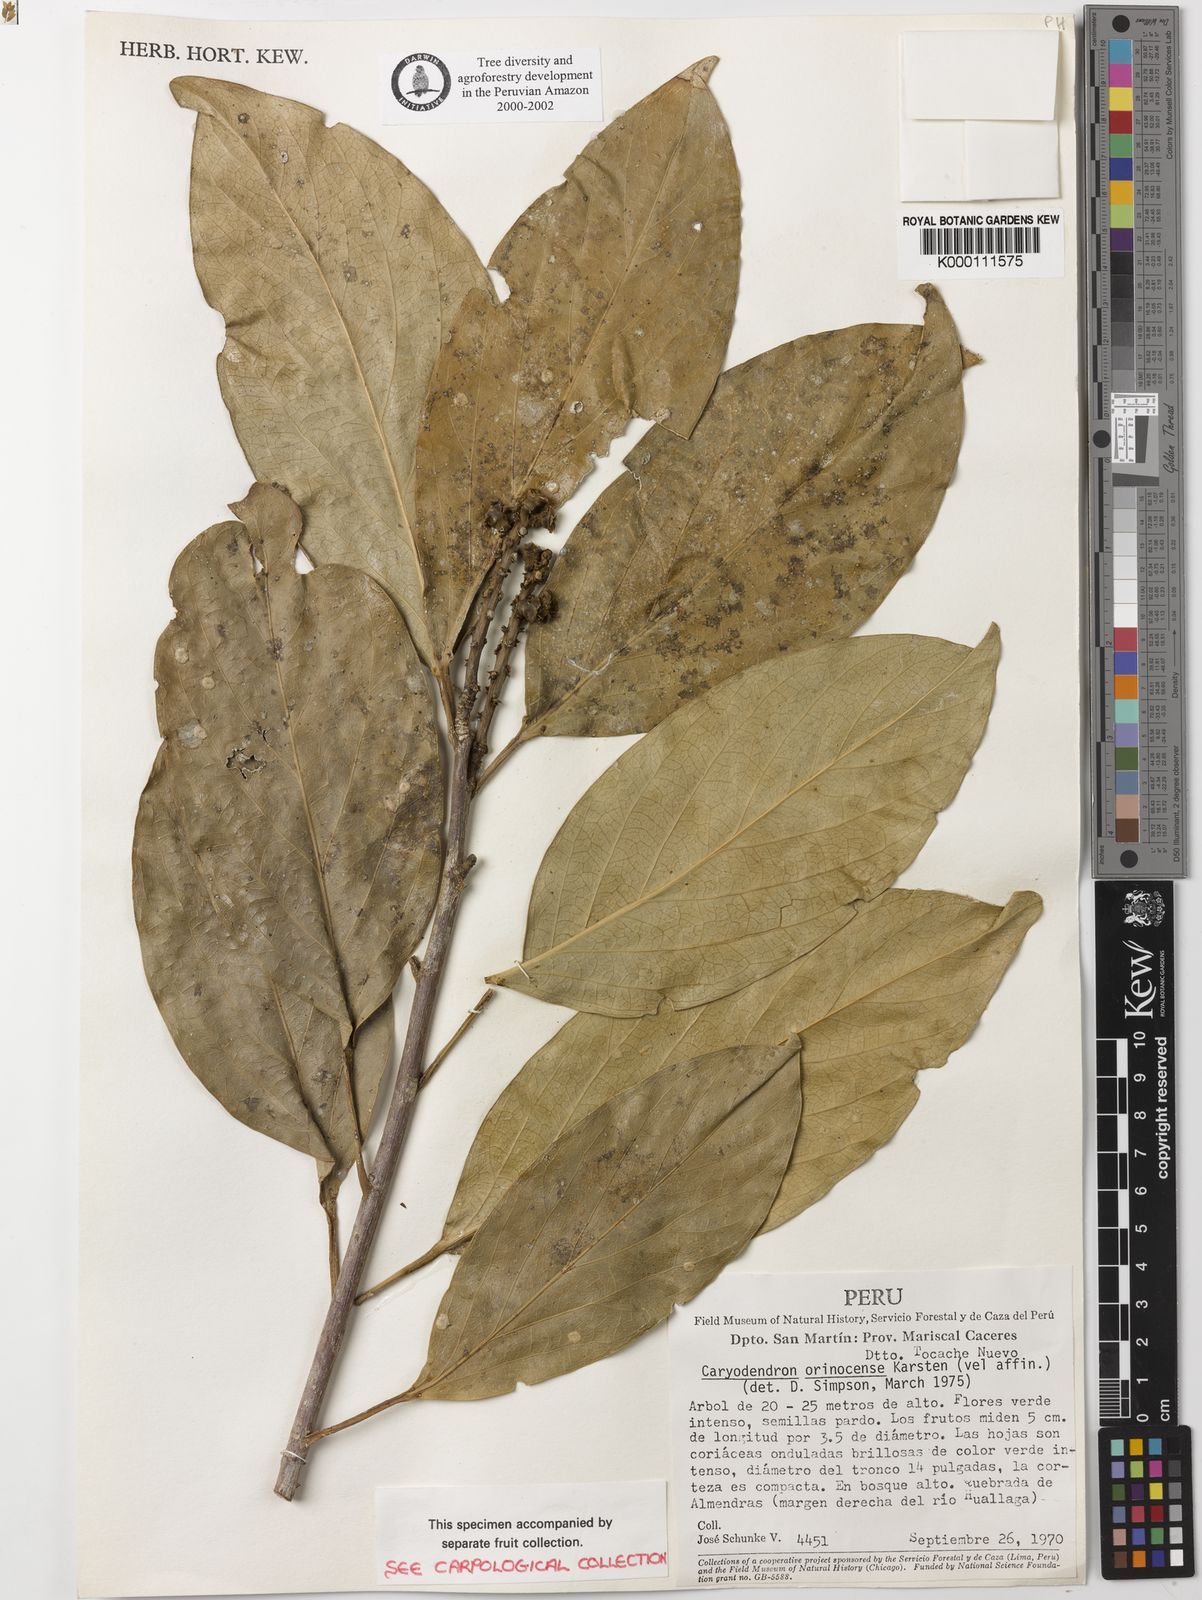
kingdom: Plantae
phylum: Tracheophyta
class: Magnoliopsida
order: Malpighiales
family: Euphorbiaceae
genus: Caryodendron
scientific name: Caryodendron orinocense
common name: Tacaynut
